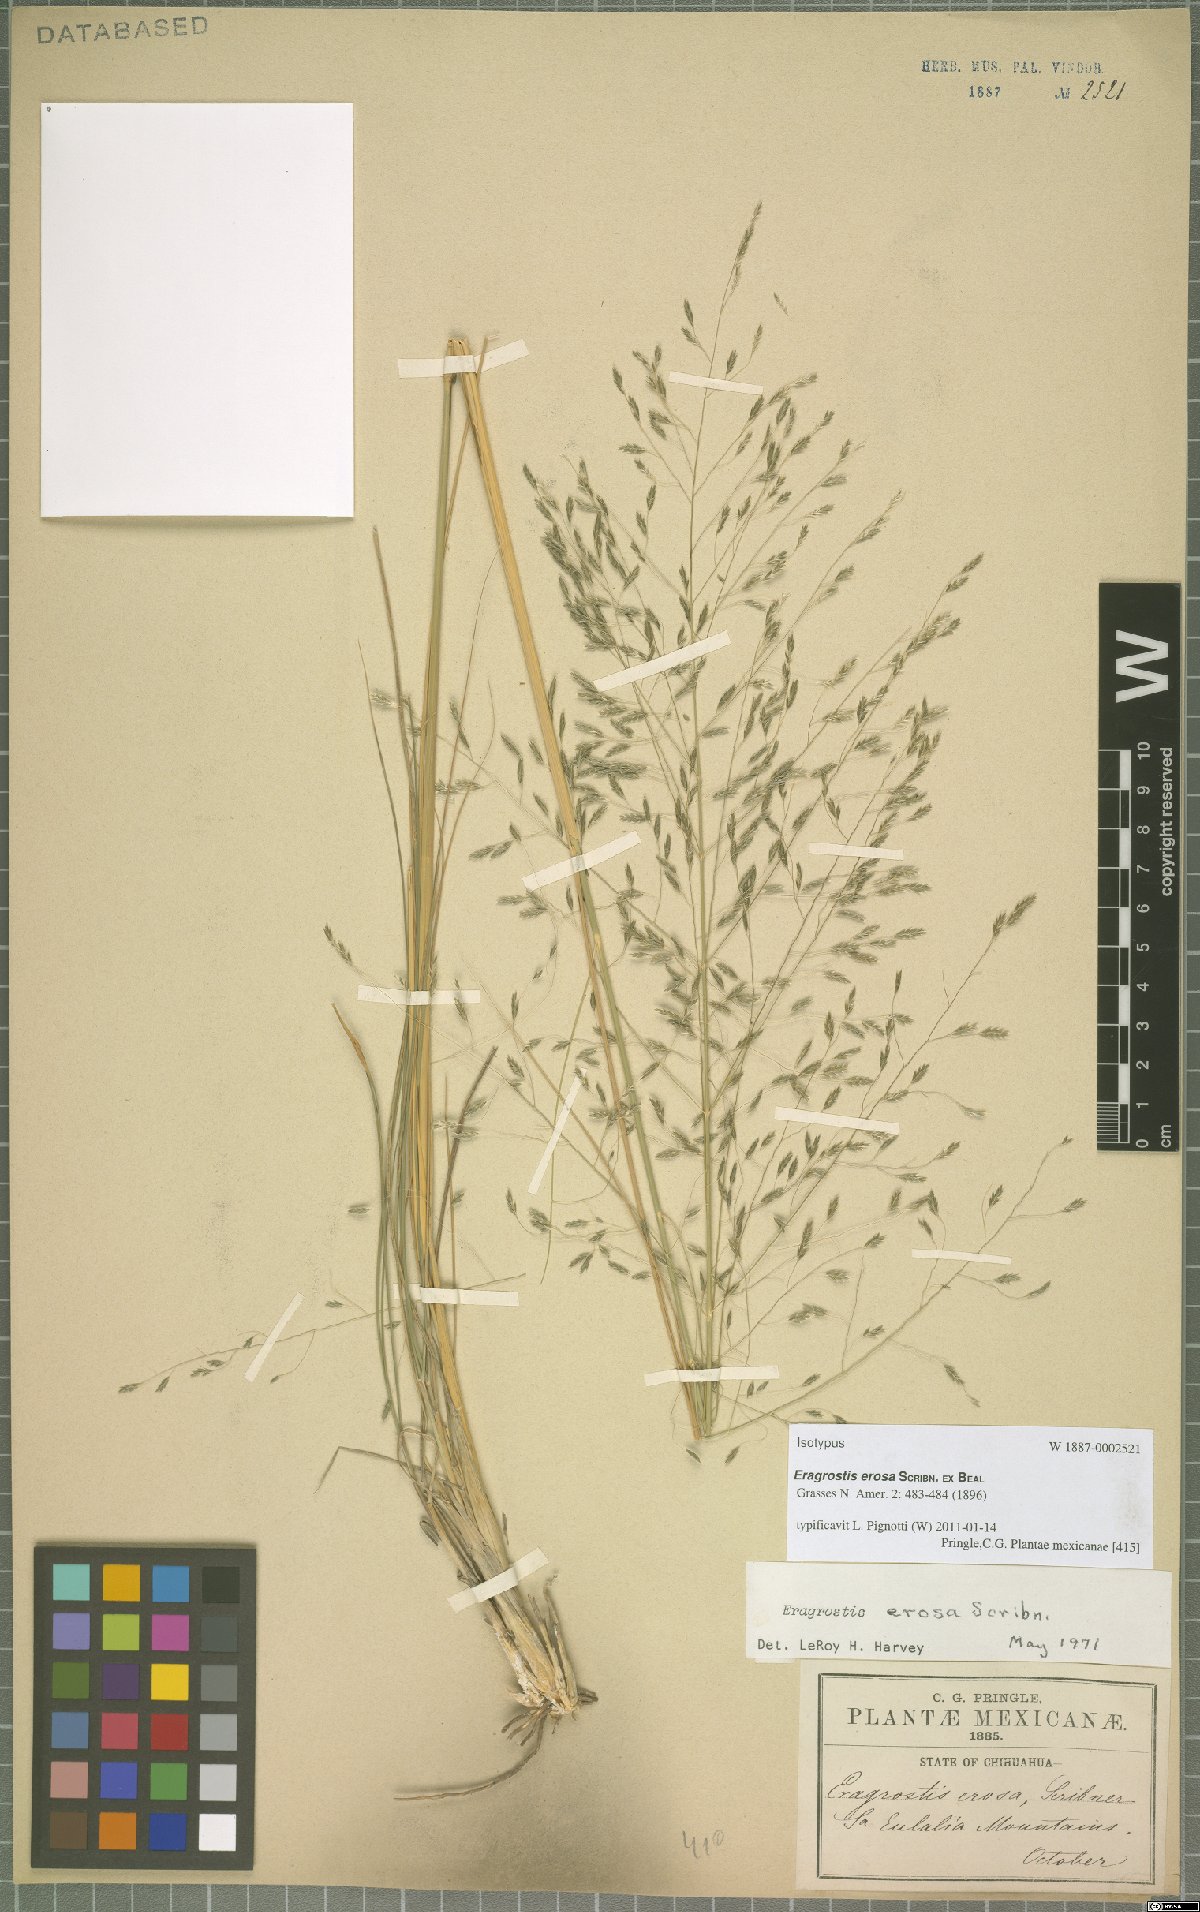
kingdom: Plantae
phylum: Tracheophyta
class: Liliopsida
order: Poales
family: Poaceae
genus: Eragrostis
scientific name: Eragrostis erosa
